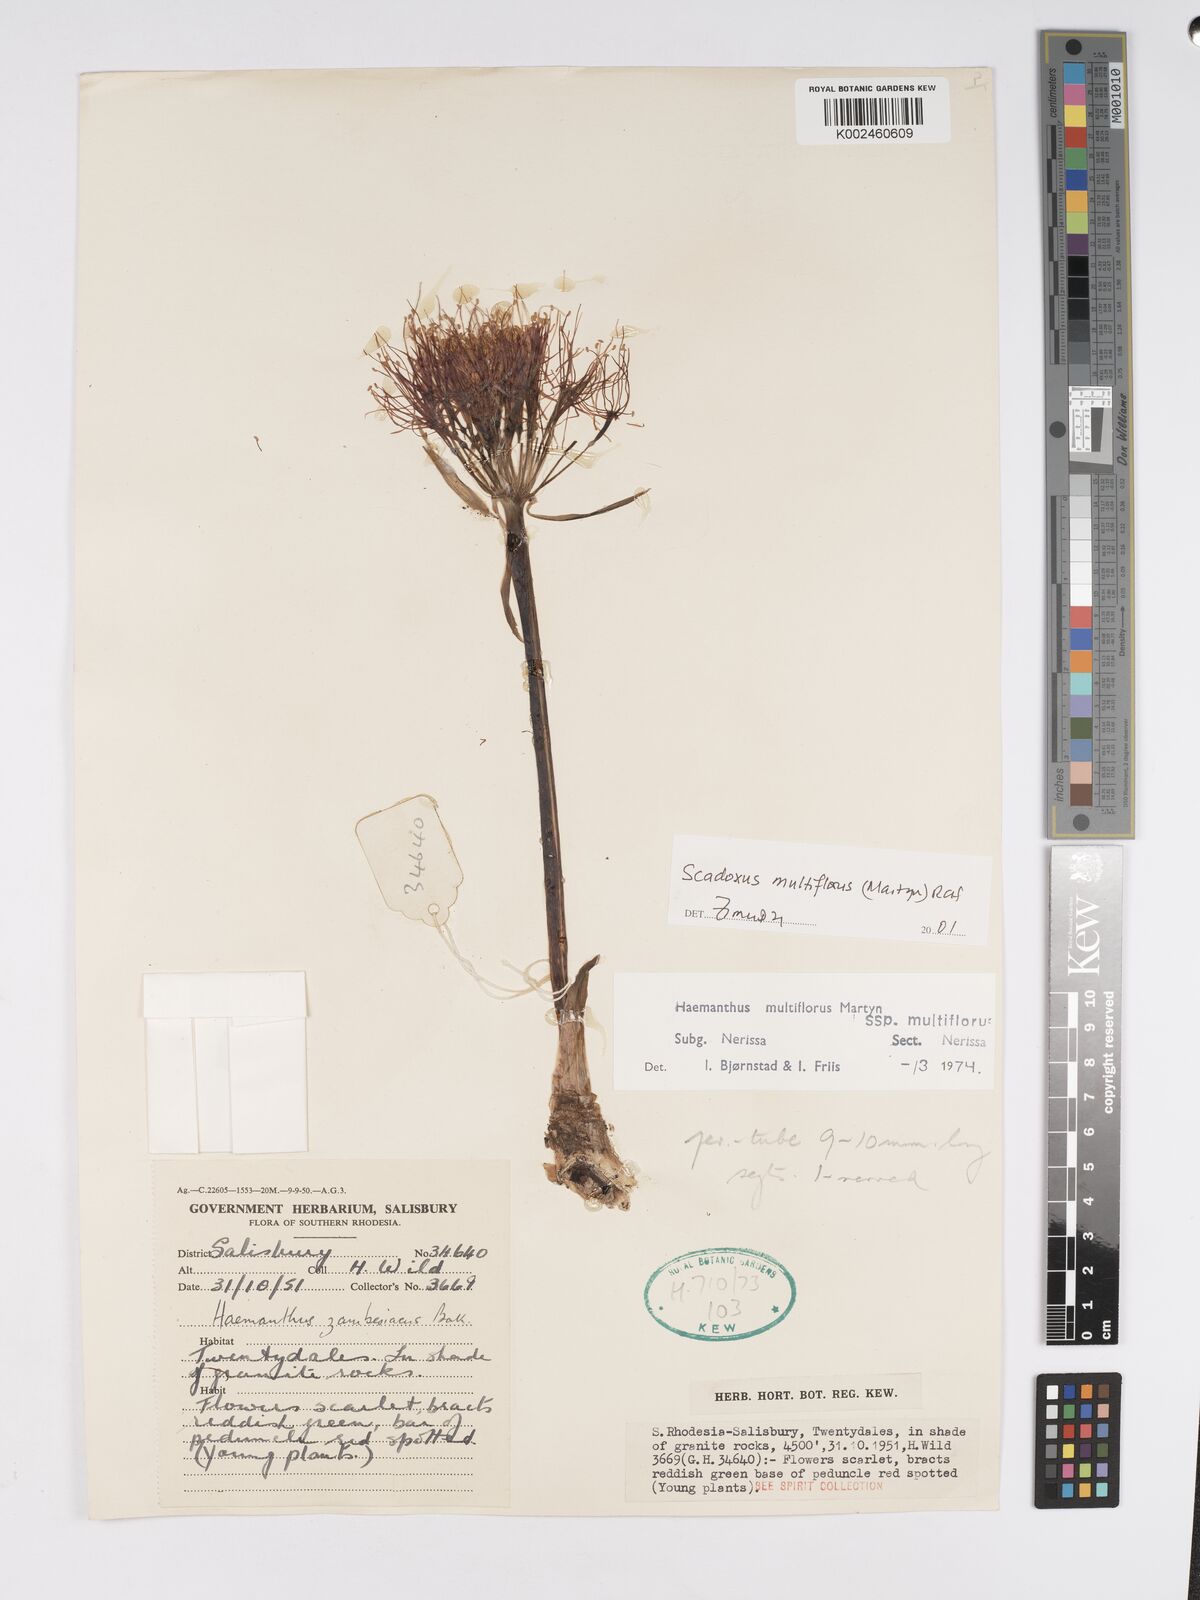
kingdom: Plantae
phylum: Tracheophyta
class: Liliopsida
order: Asparagales
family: Amaryllidaceae
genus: Scadoxus
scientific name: Scadoxus multiflorus
